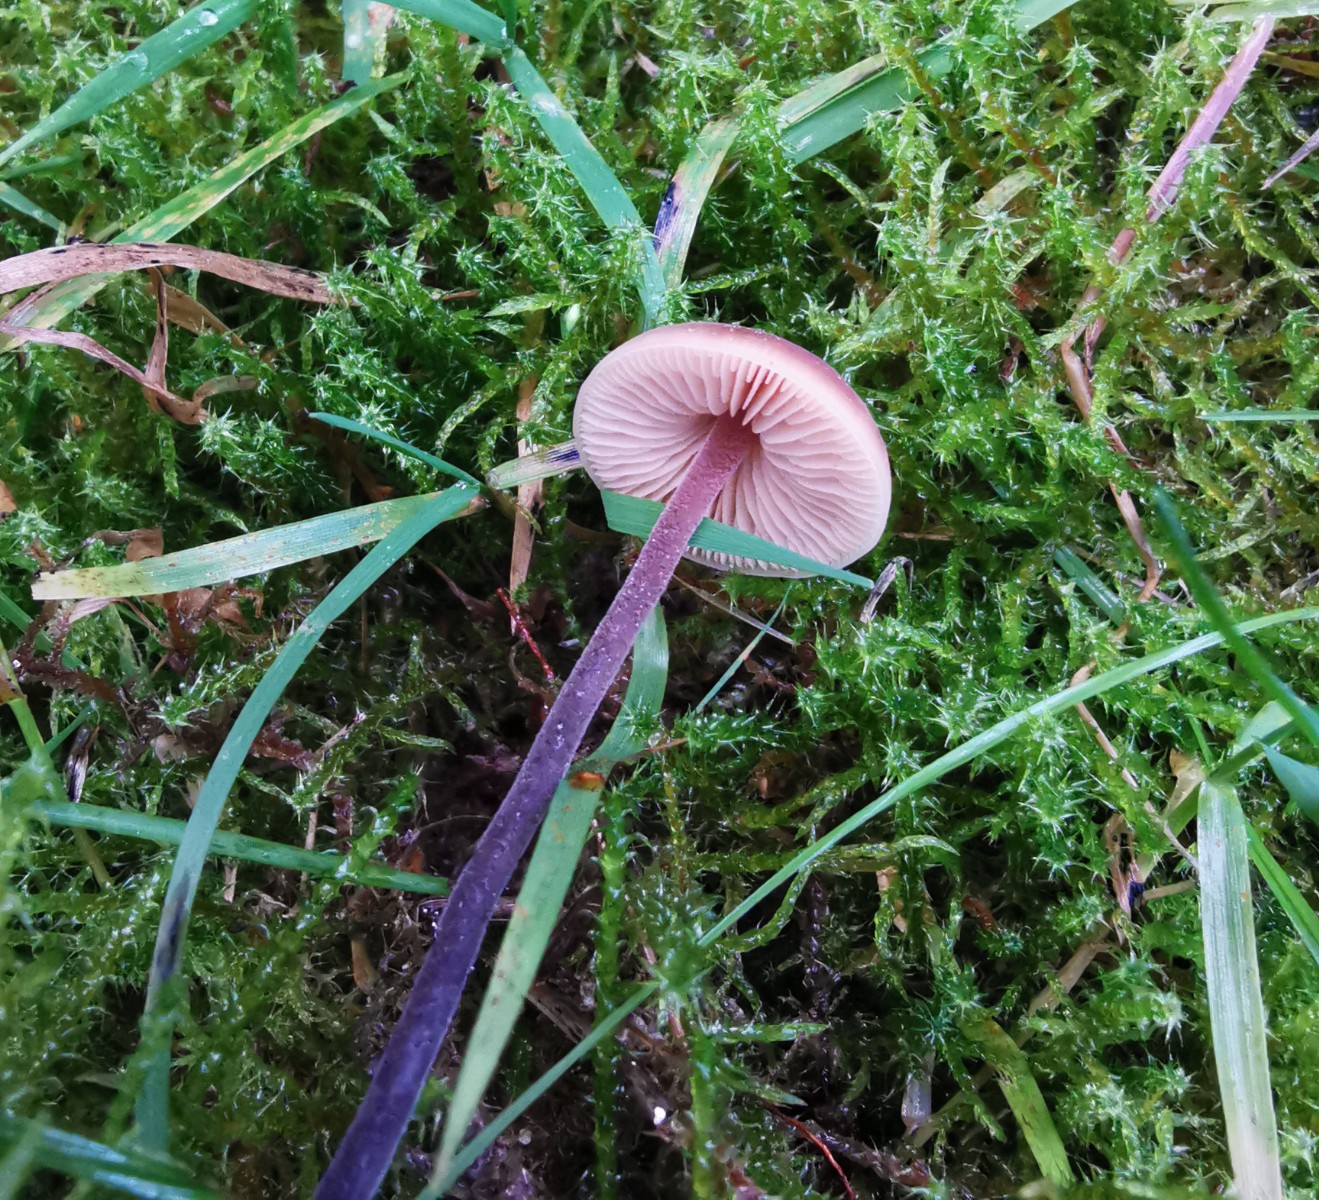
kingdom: Fungi
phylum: Basidiomycota
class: Agaricomycetes
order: Agaricales
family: Macrocystidiaceae
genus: Macrocystidia
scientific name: Macrocystidia
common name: agurkehat
